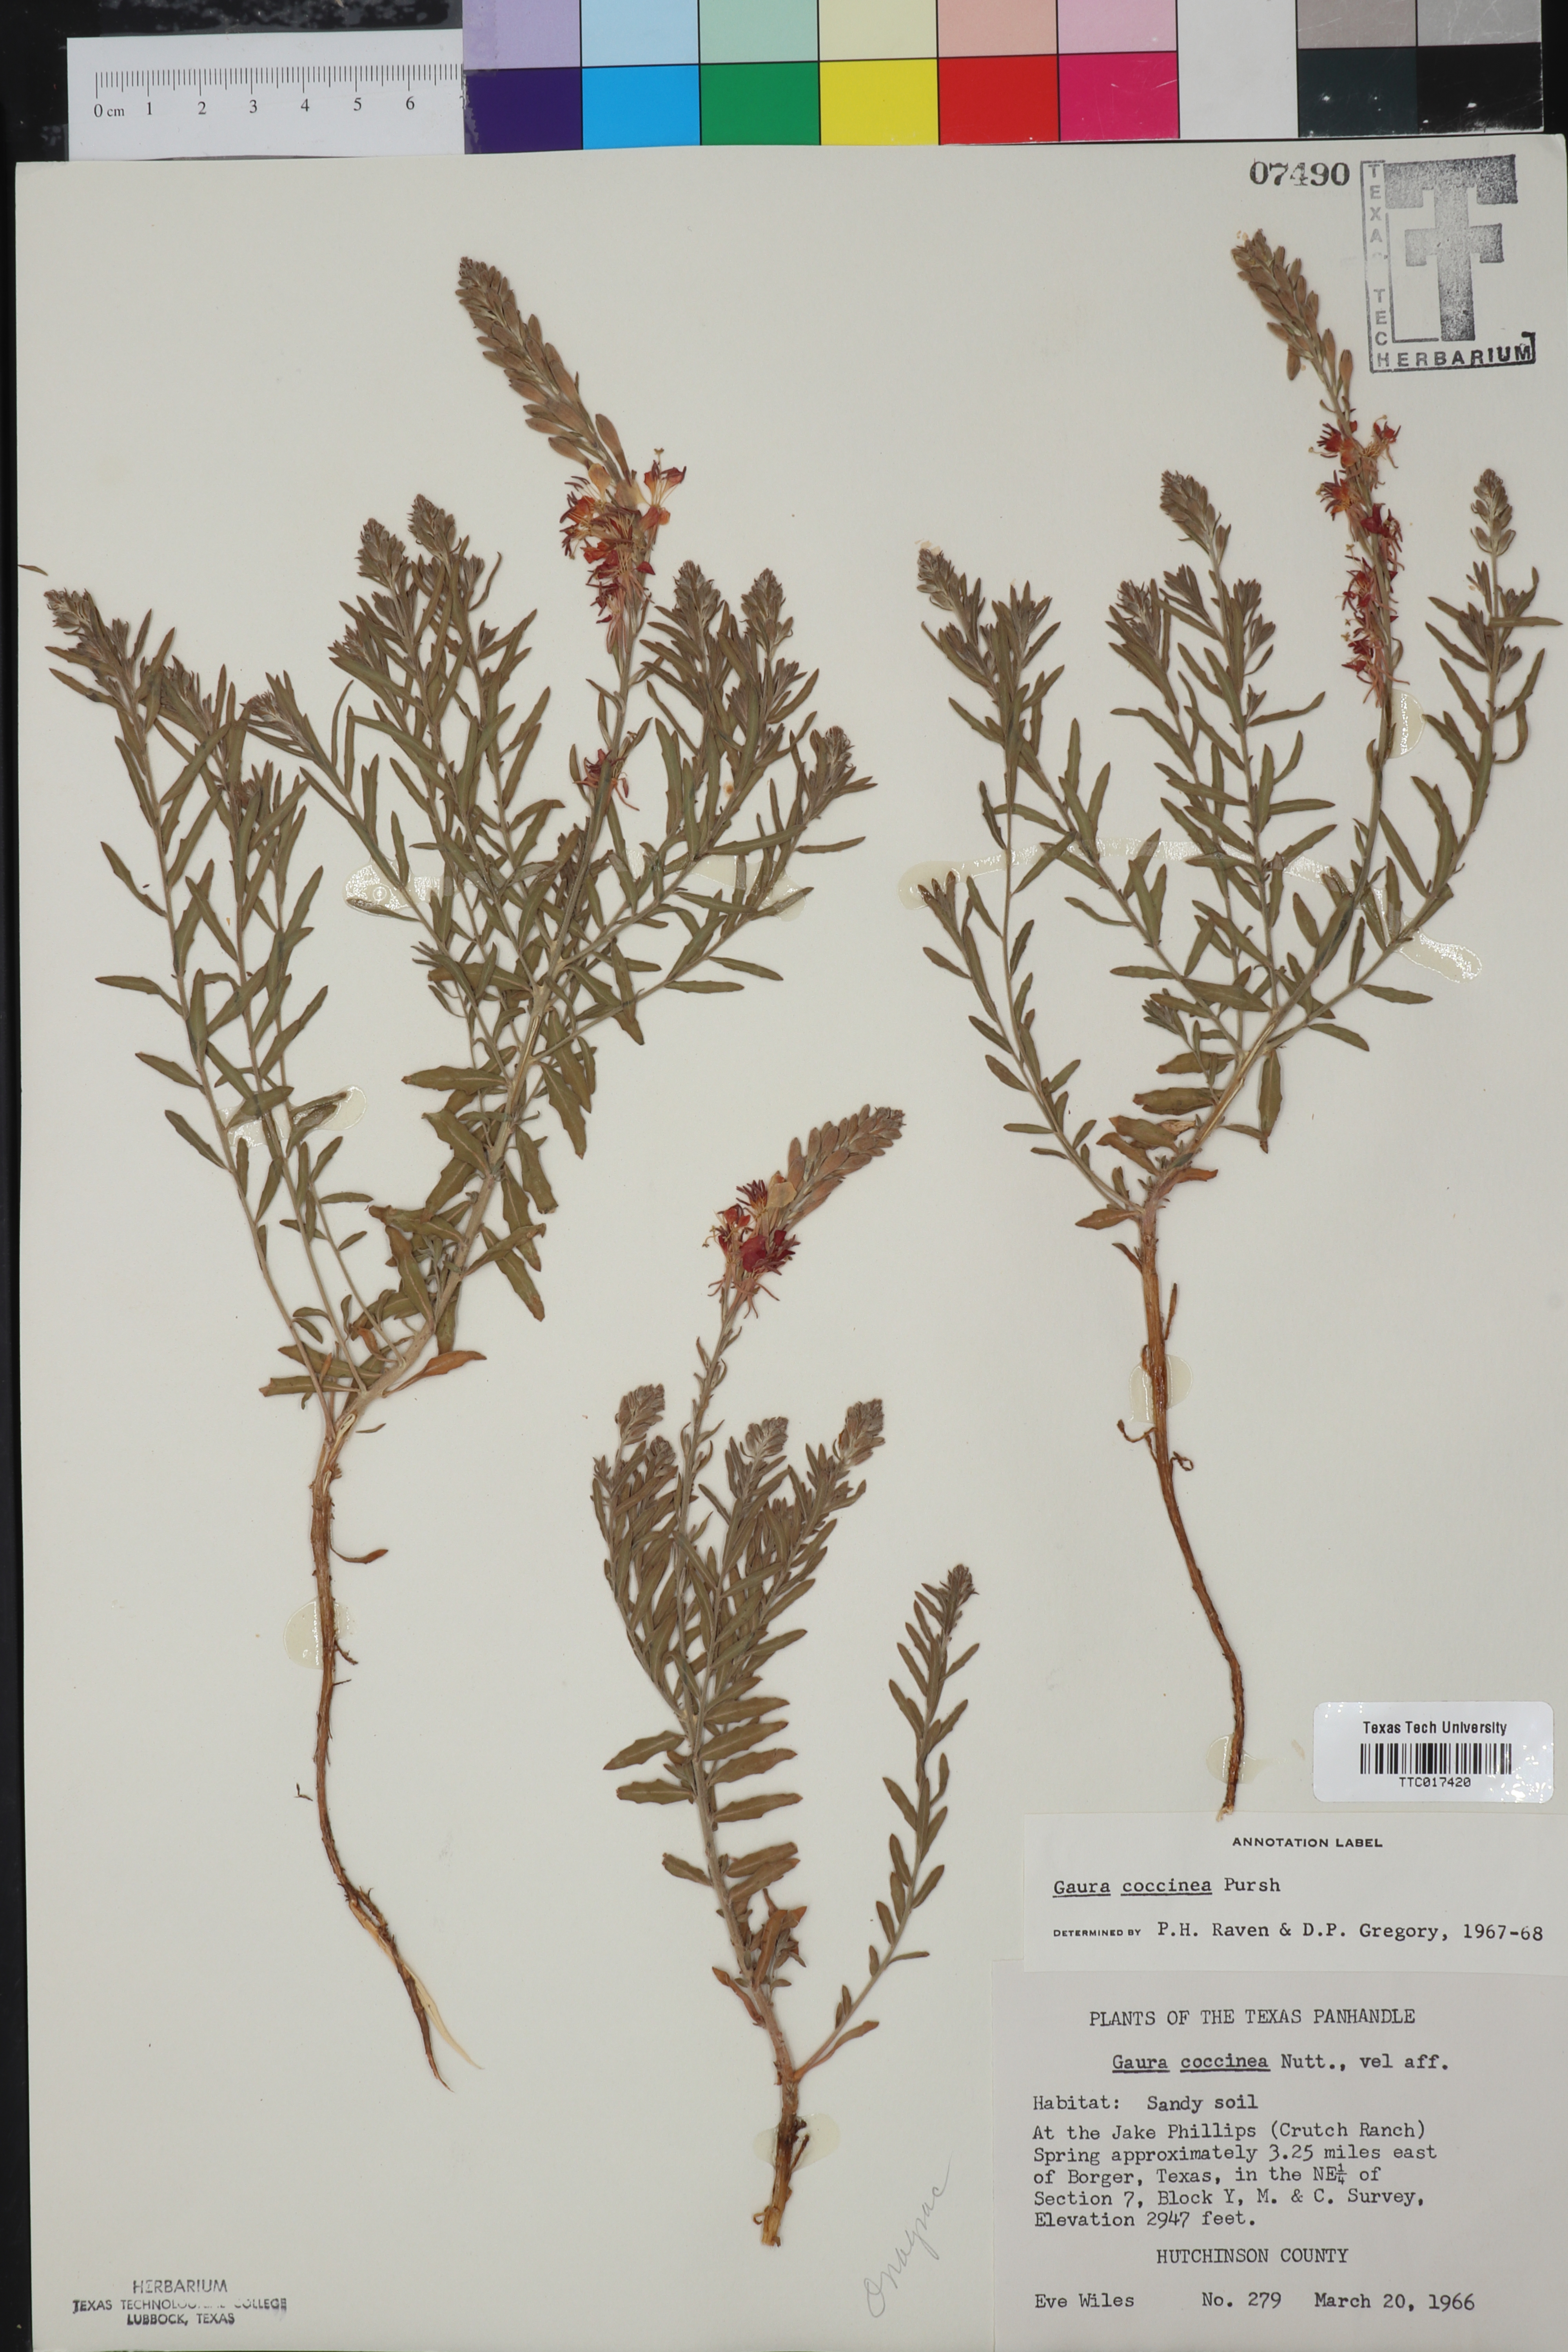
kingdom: Plantae
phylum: Tracheophyta
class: Magnoliopsida
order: Myrtales
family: Onagraceae
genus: Oenothera
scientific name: Oenothera suffrutescens
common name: Scarlet beeblossom
